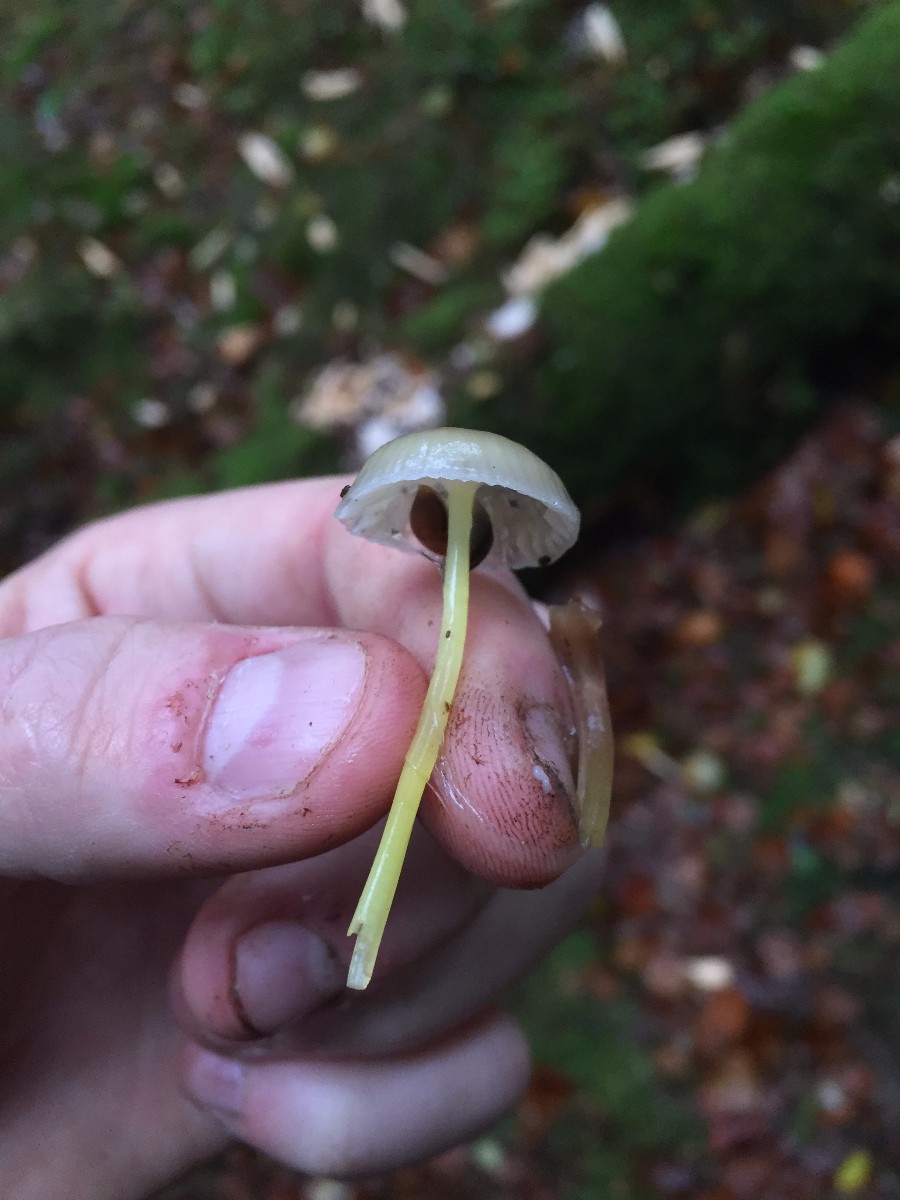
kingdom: Fungi
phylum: Basidiomycota
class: Agaricomycetes
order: Agaricales
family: Mycenaceae
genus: Mycena
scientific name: Mycena epipterygia
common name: gulstokket huesvamp
